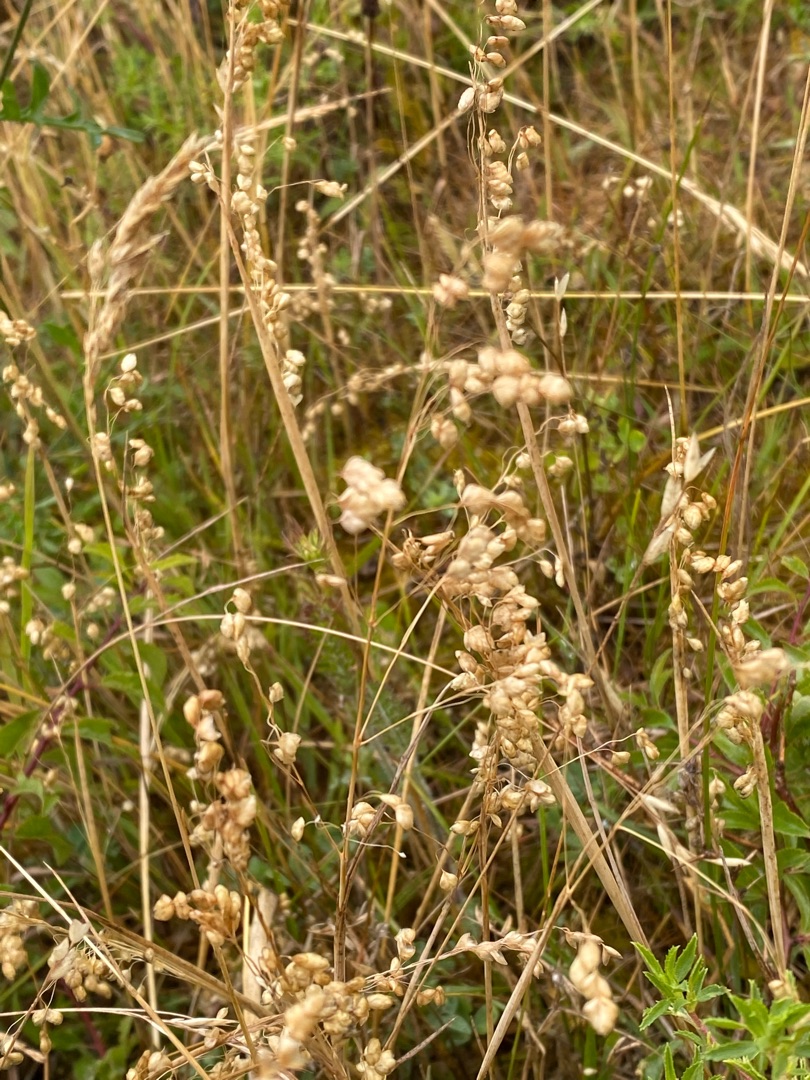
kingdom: Plantae
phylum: Tracheophyta
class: Liliopsida
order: Poales
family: Poaceae
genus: Briza
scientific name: Briza media
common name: Hjertegræs
